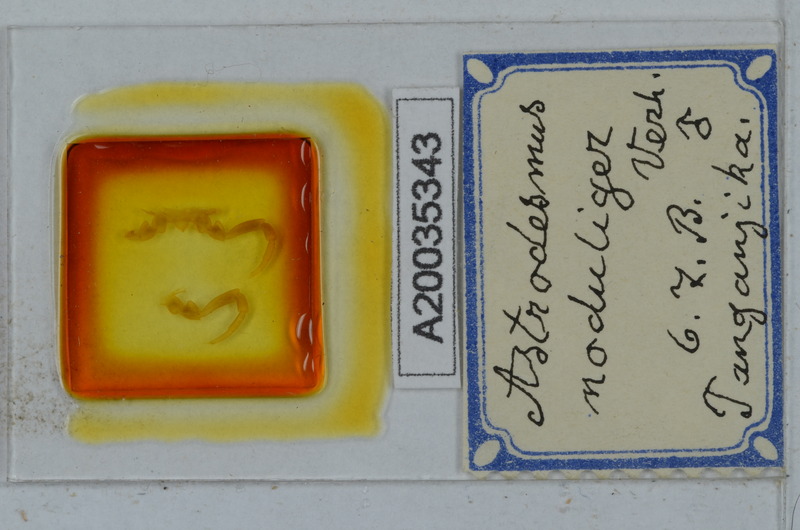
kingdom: Animalia
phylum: Arthropoda
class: Diplopoda
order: Polydesmida
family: Gomphodesmidae
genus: Astrodesmus
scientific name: Astrodesmus noduliger
